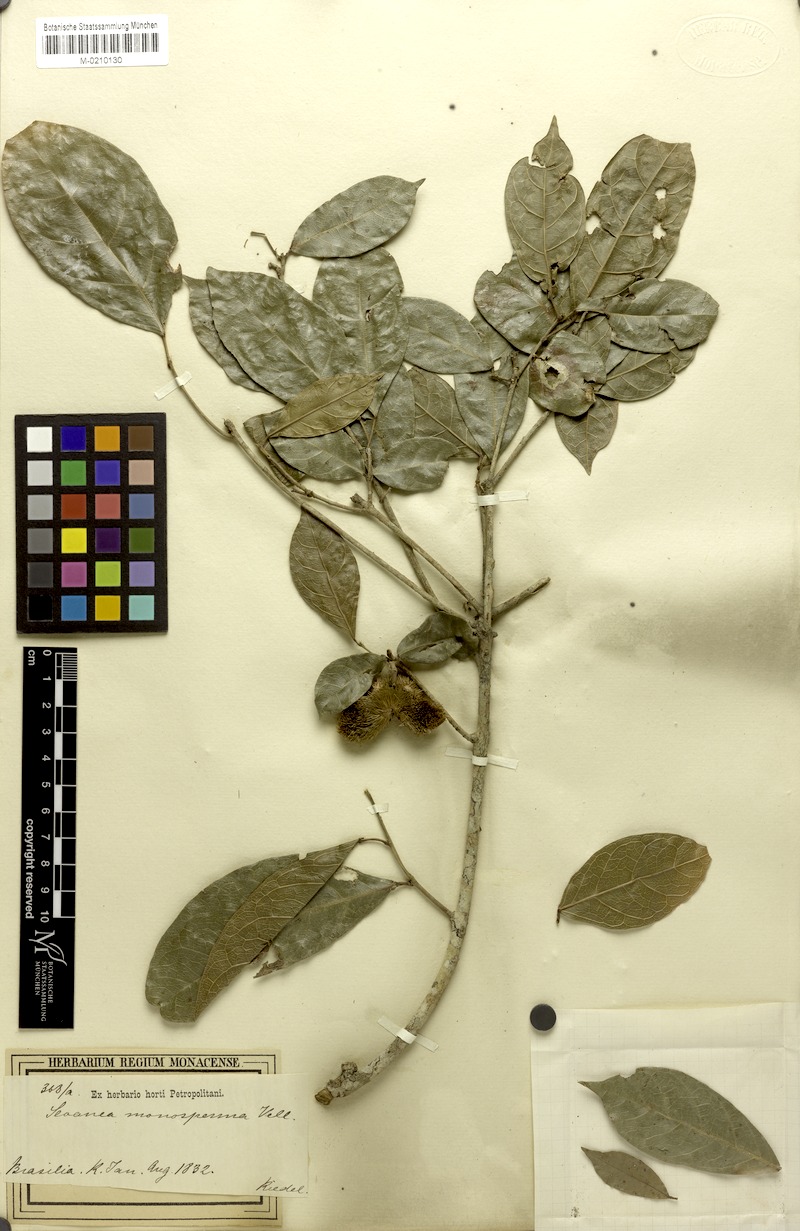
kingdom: Plantae
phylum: Tracheophyta
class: Magnoliopsida
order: Oxalidales
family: Elaeocarpaceae
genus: Sloanea
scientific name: Sloanea hirsuta
